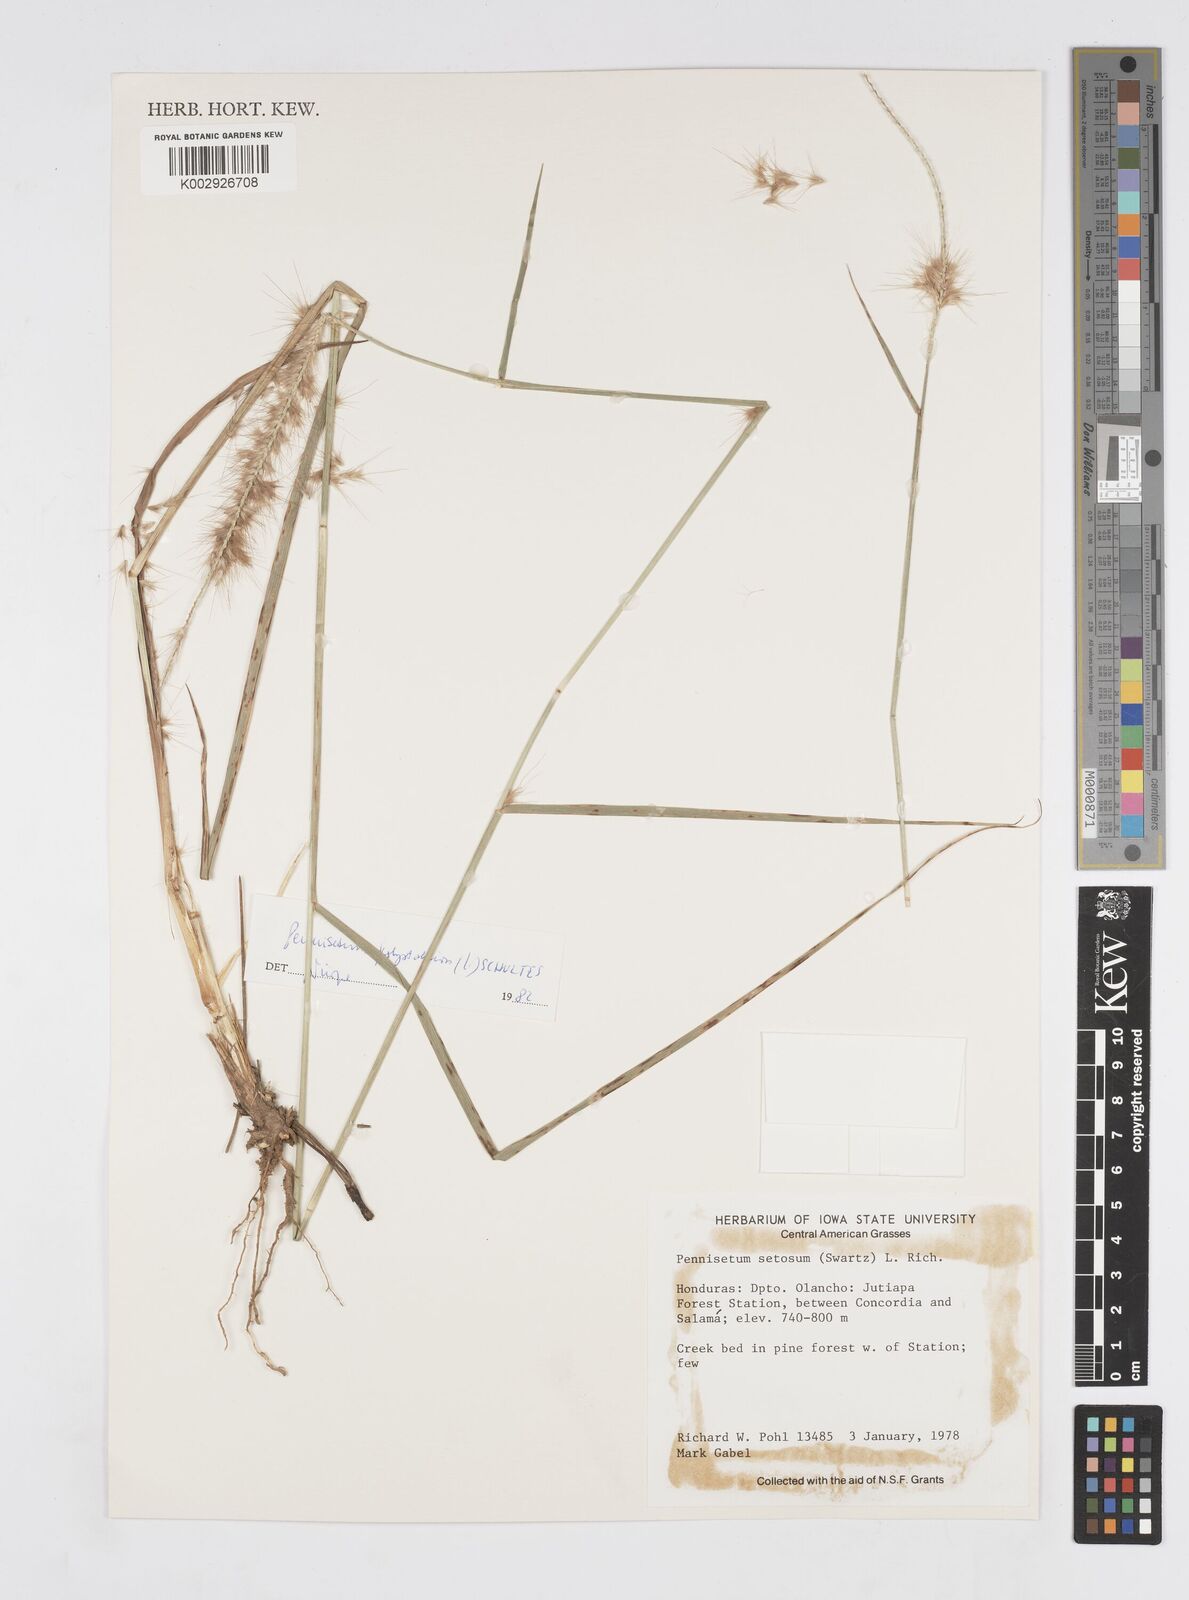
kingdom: Plantae
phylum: Tracheophyta
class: Liliopsida
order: Poales
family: Poaceae
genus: Cenchrus
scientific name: Cenchrus setosus
